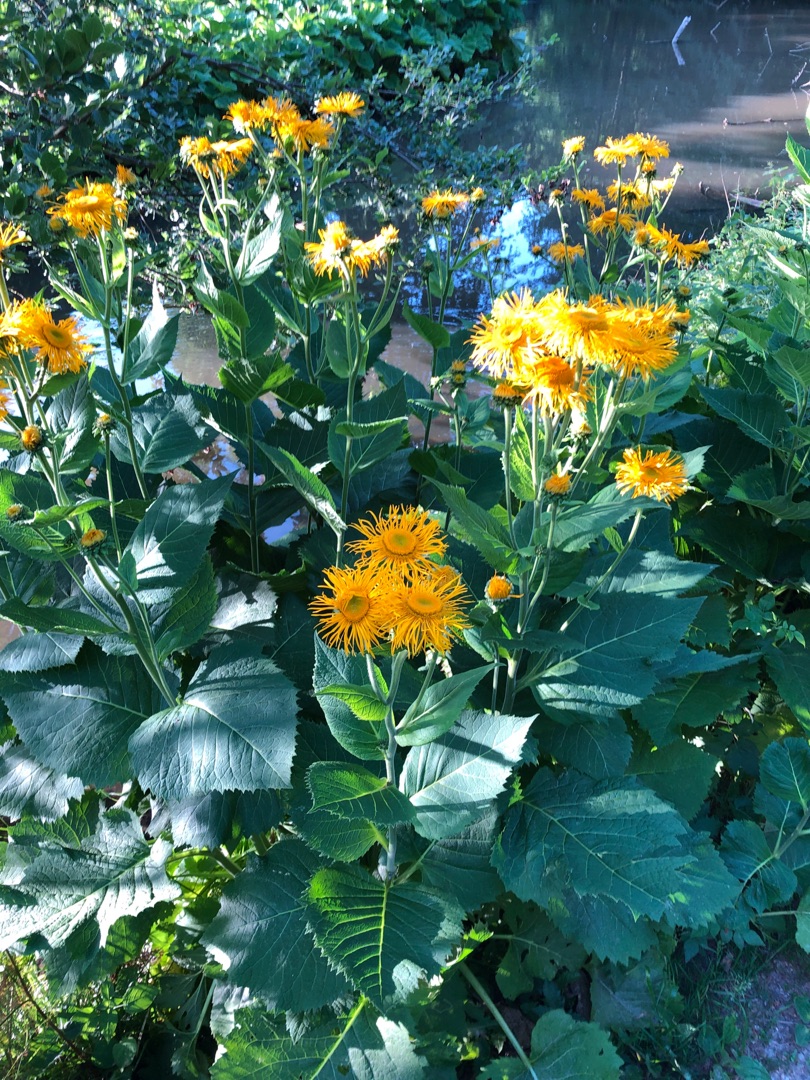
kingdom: Plantae
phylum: Tracheophyta
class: Magnoliopsida
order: Asterales
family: Asteraceae
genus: Telekia
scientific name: Telekia speciosa
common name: Tusindstråle
